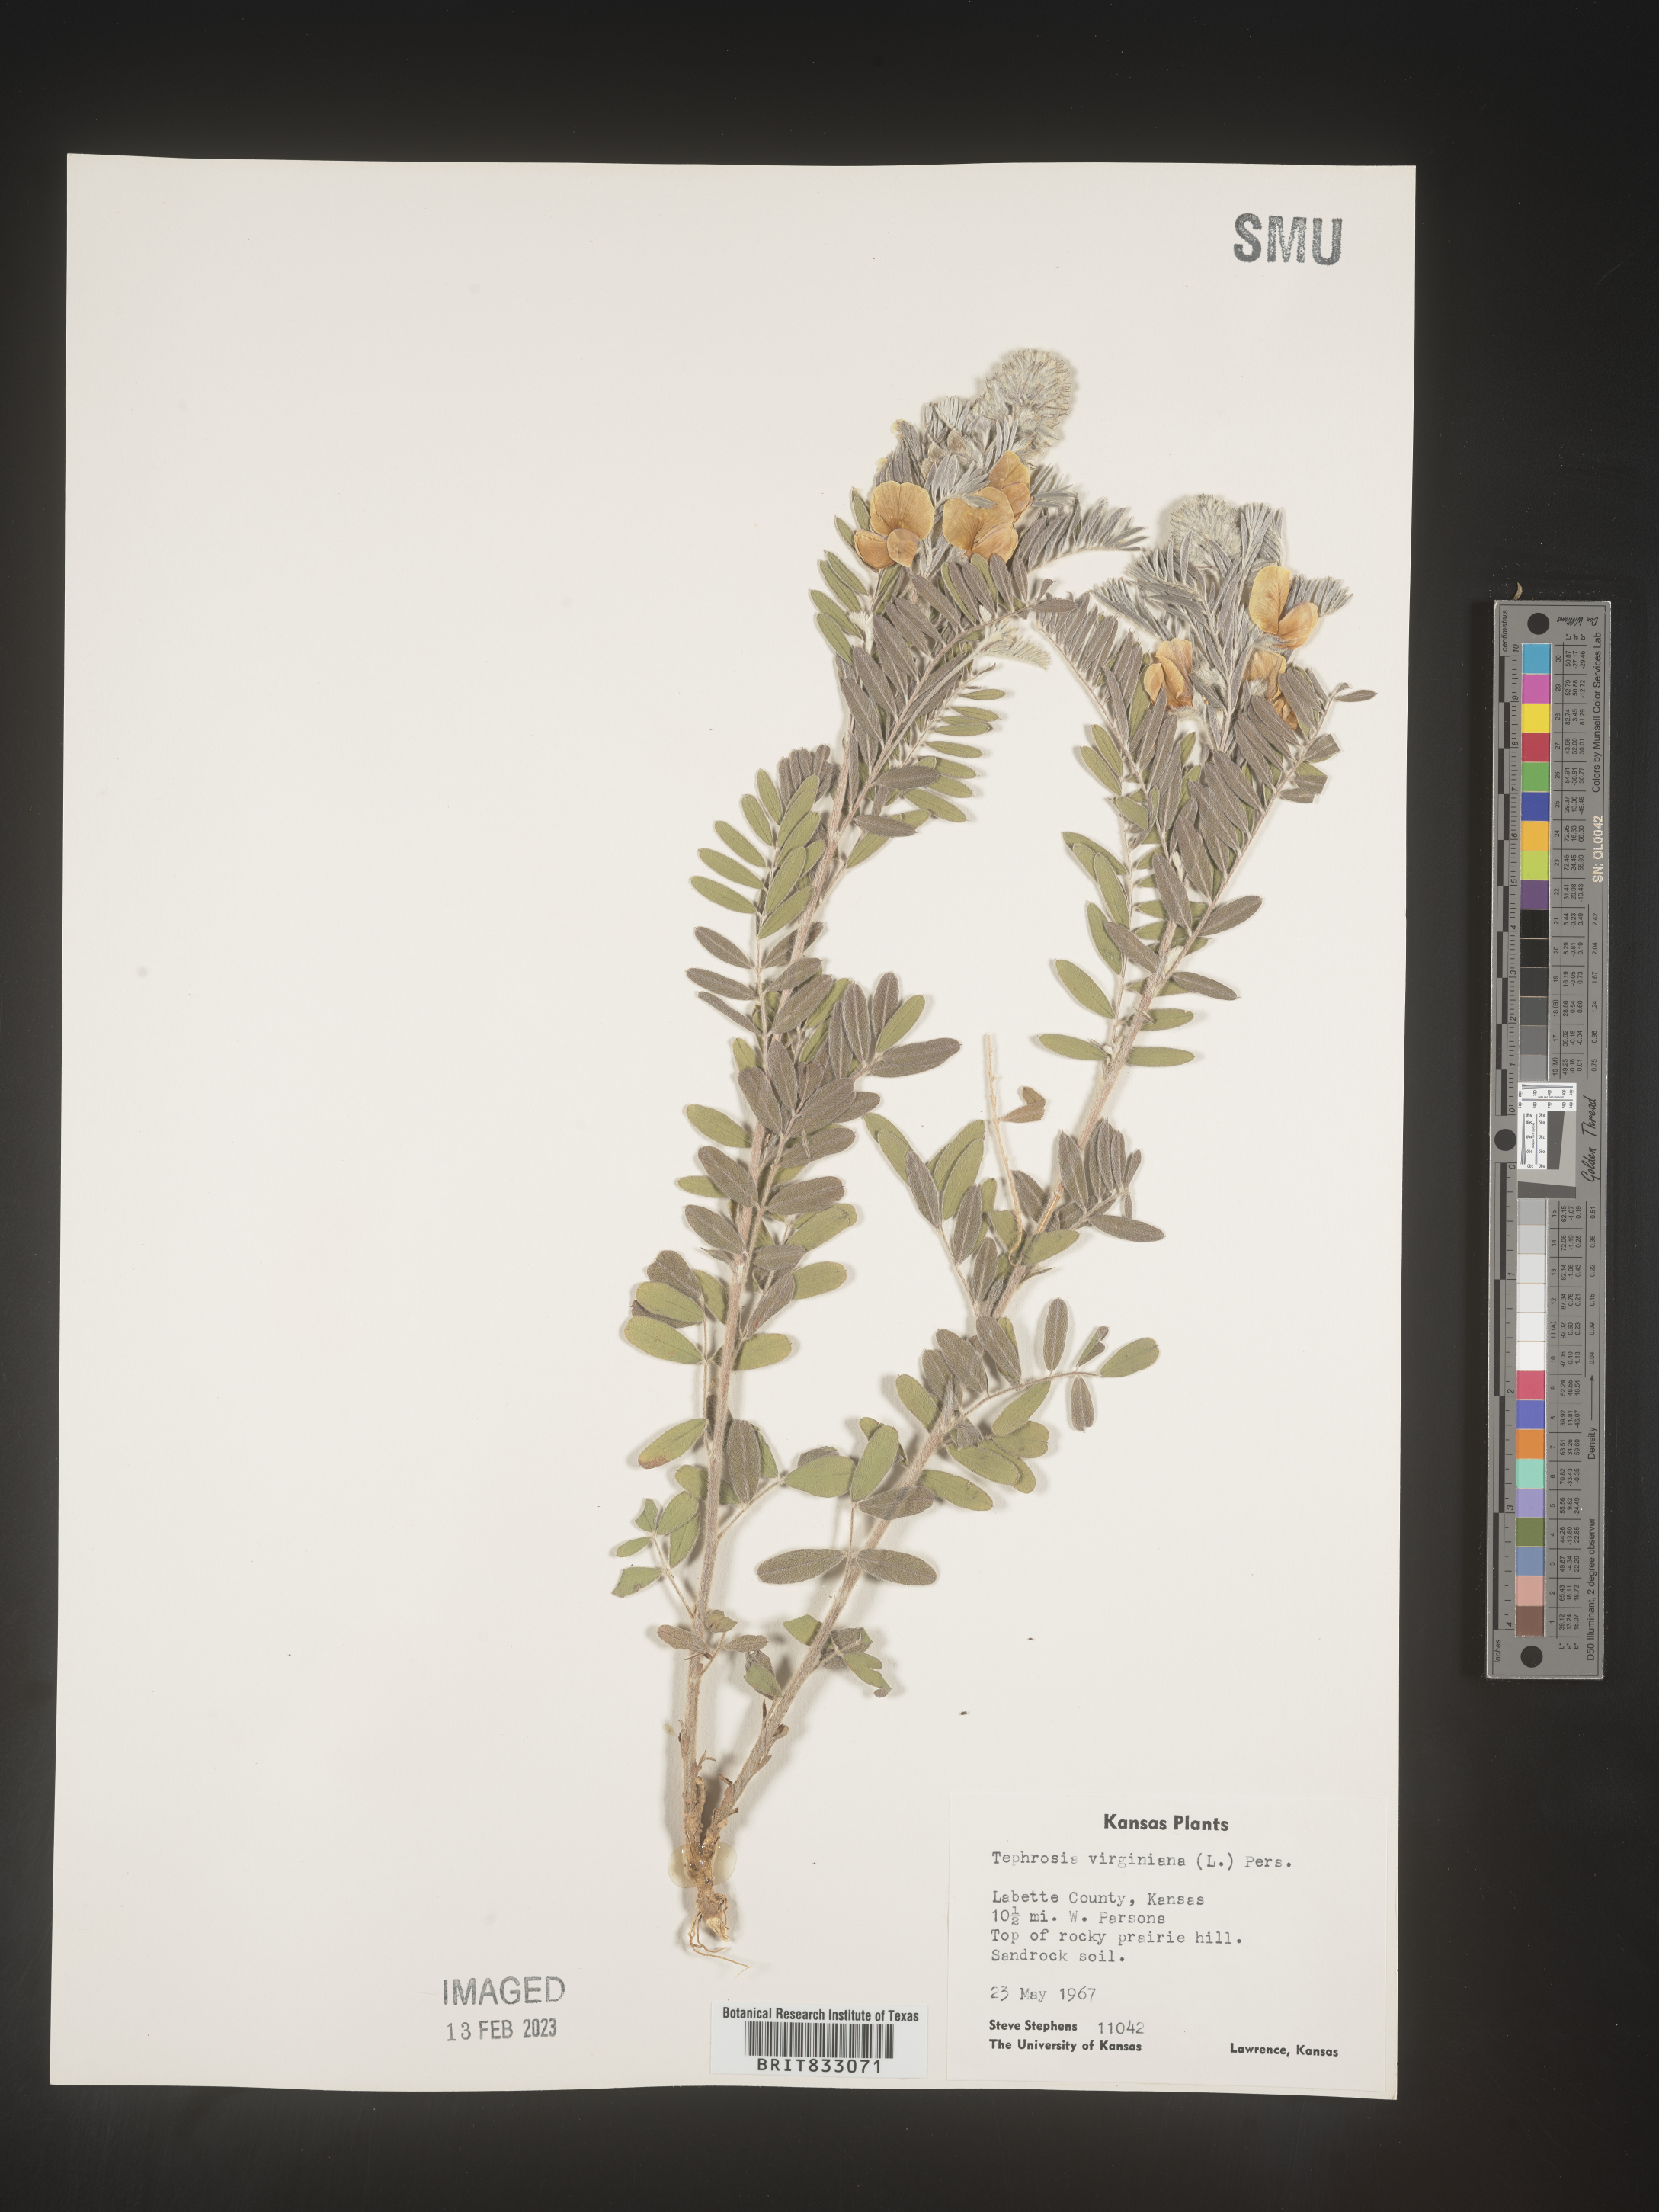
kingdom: Plantae
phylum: Tracheophyta
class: Magnoliopsida
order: Fabales
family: Fabaceae
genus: Tephrosia
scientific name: Tephrosia virginiana
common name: Rabbit-pea
